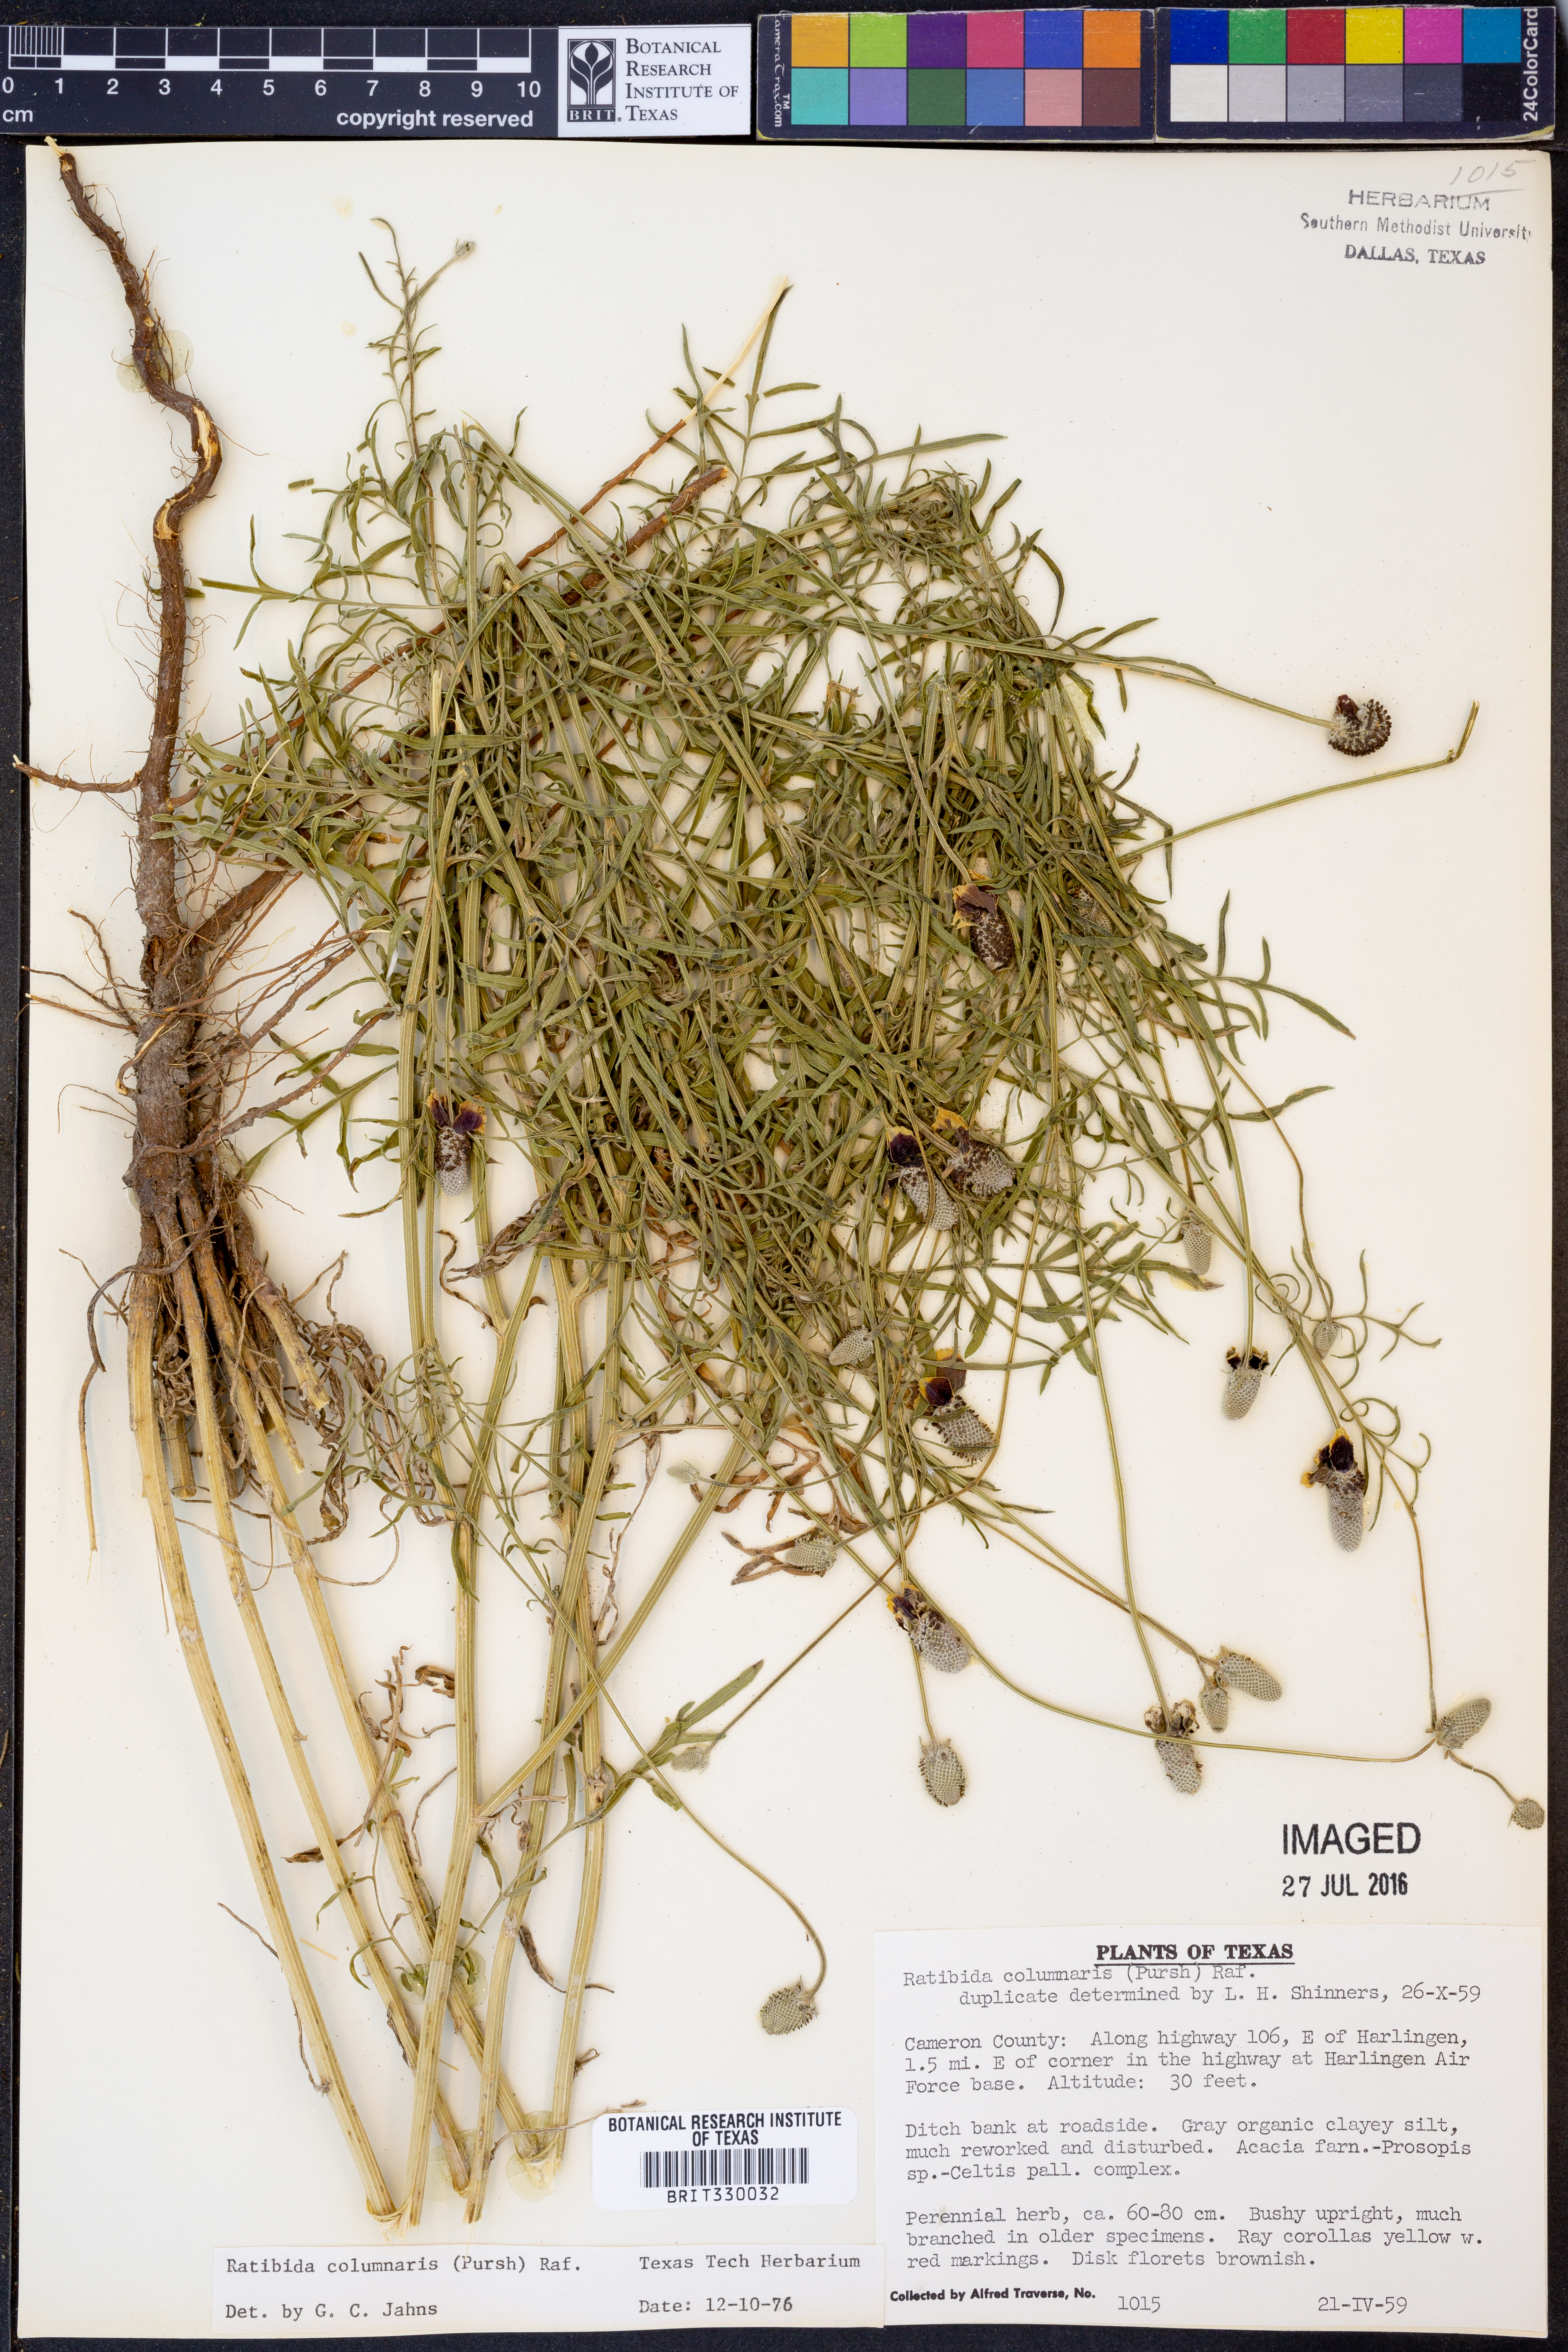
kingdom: Plantae
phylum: Tracheophyta
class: Magnoliopsida
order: Asterales
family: Asteraceae
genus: Ratibida
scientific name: Ratibida columnifera
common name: Prairie coneflower
